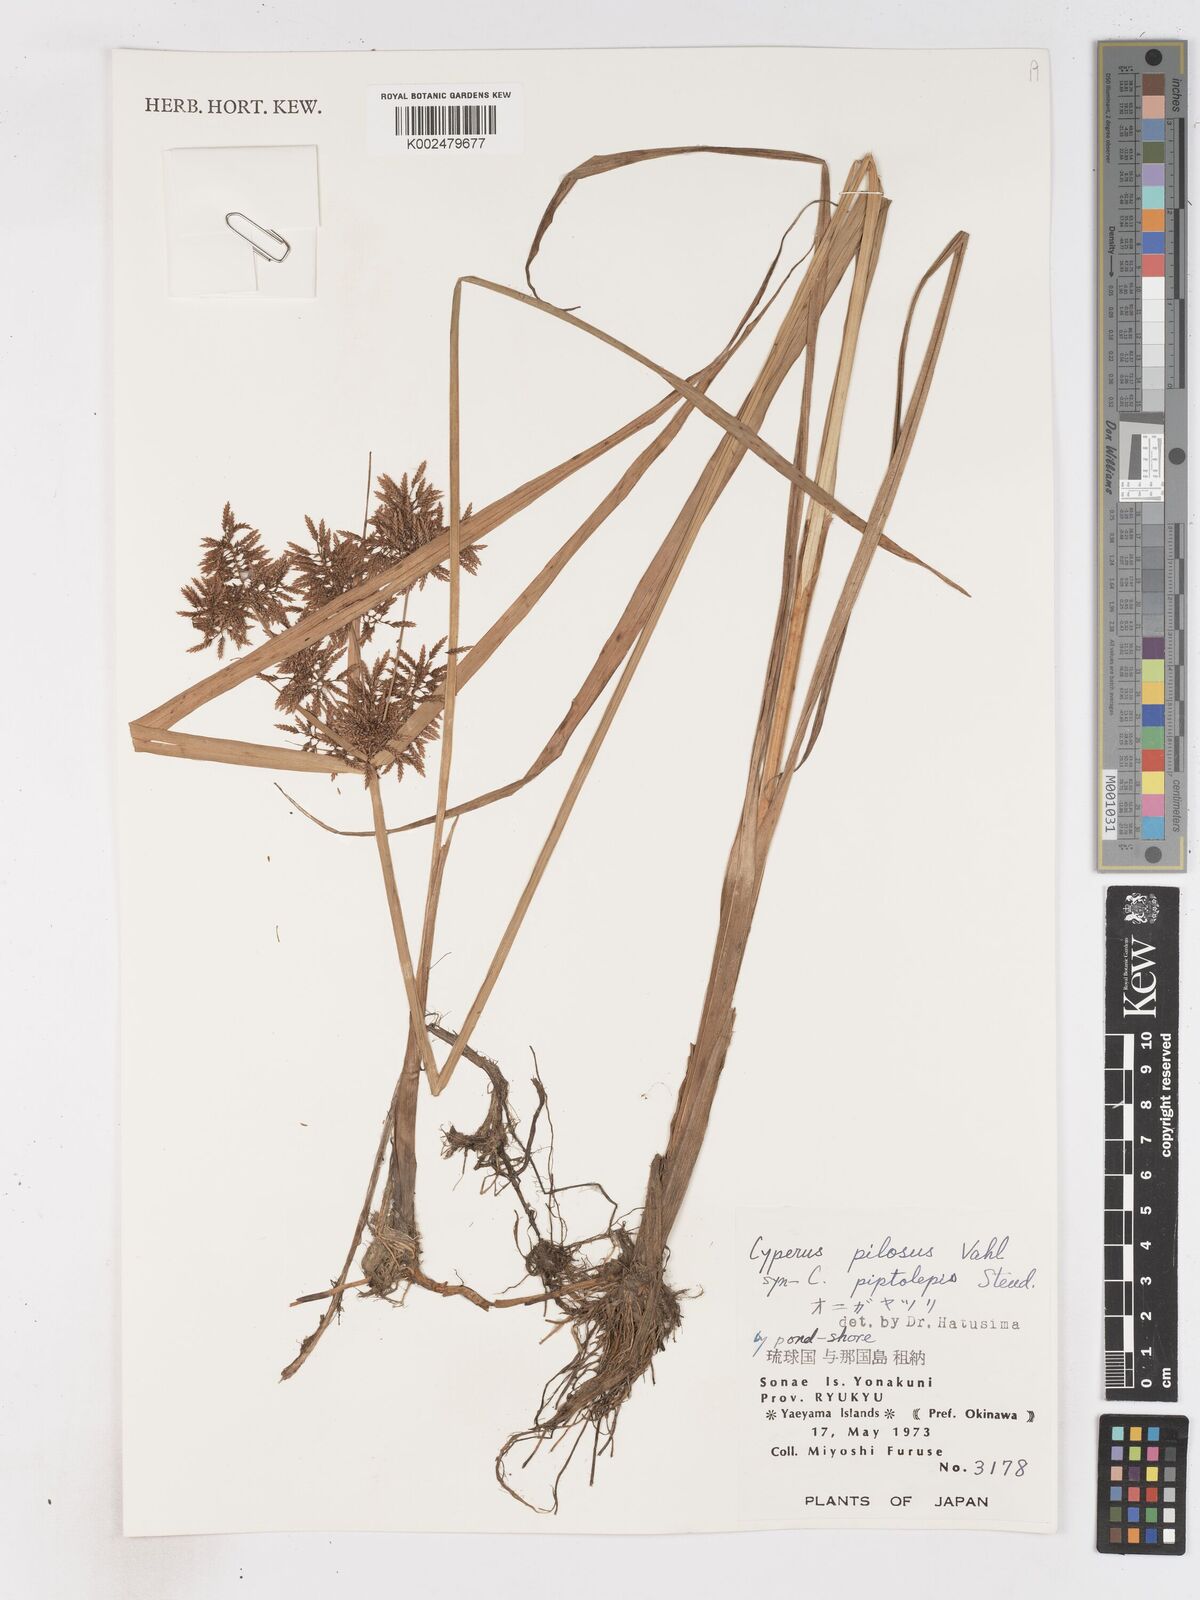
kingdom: Plantae
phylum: Tracheophyta
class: Liliopsida
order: Poales
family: Cyperaceae
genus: Cyperus
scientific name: Cyperus pilosus
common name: Fuzzy flatsedge
